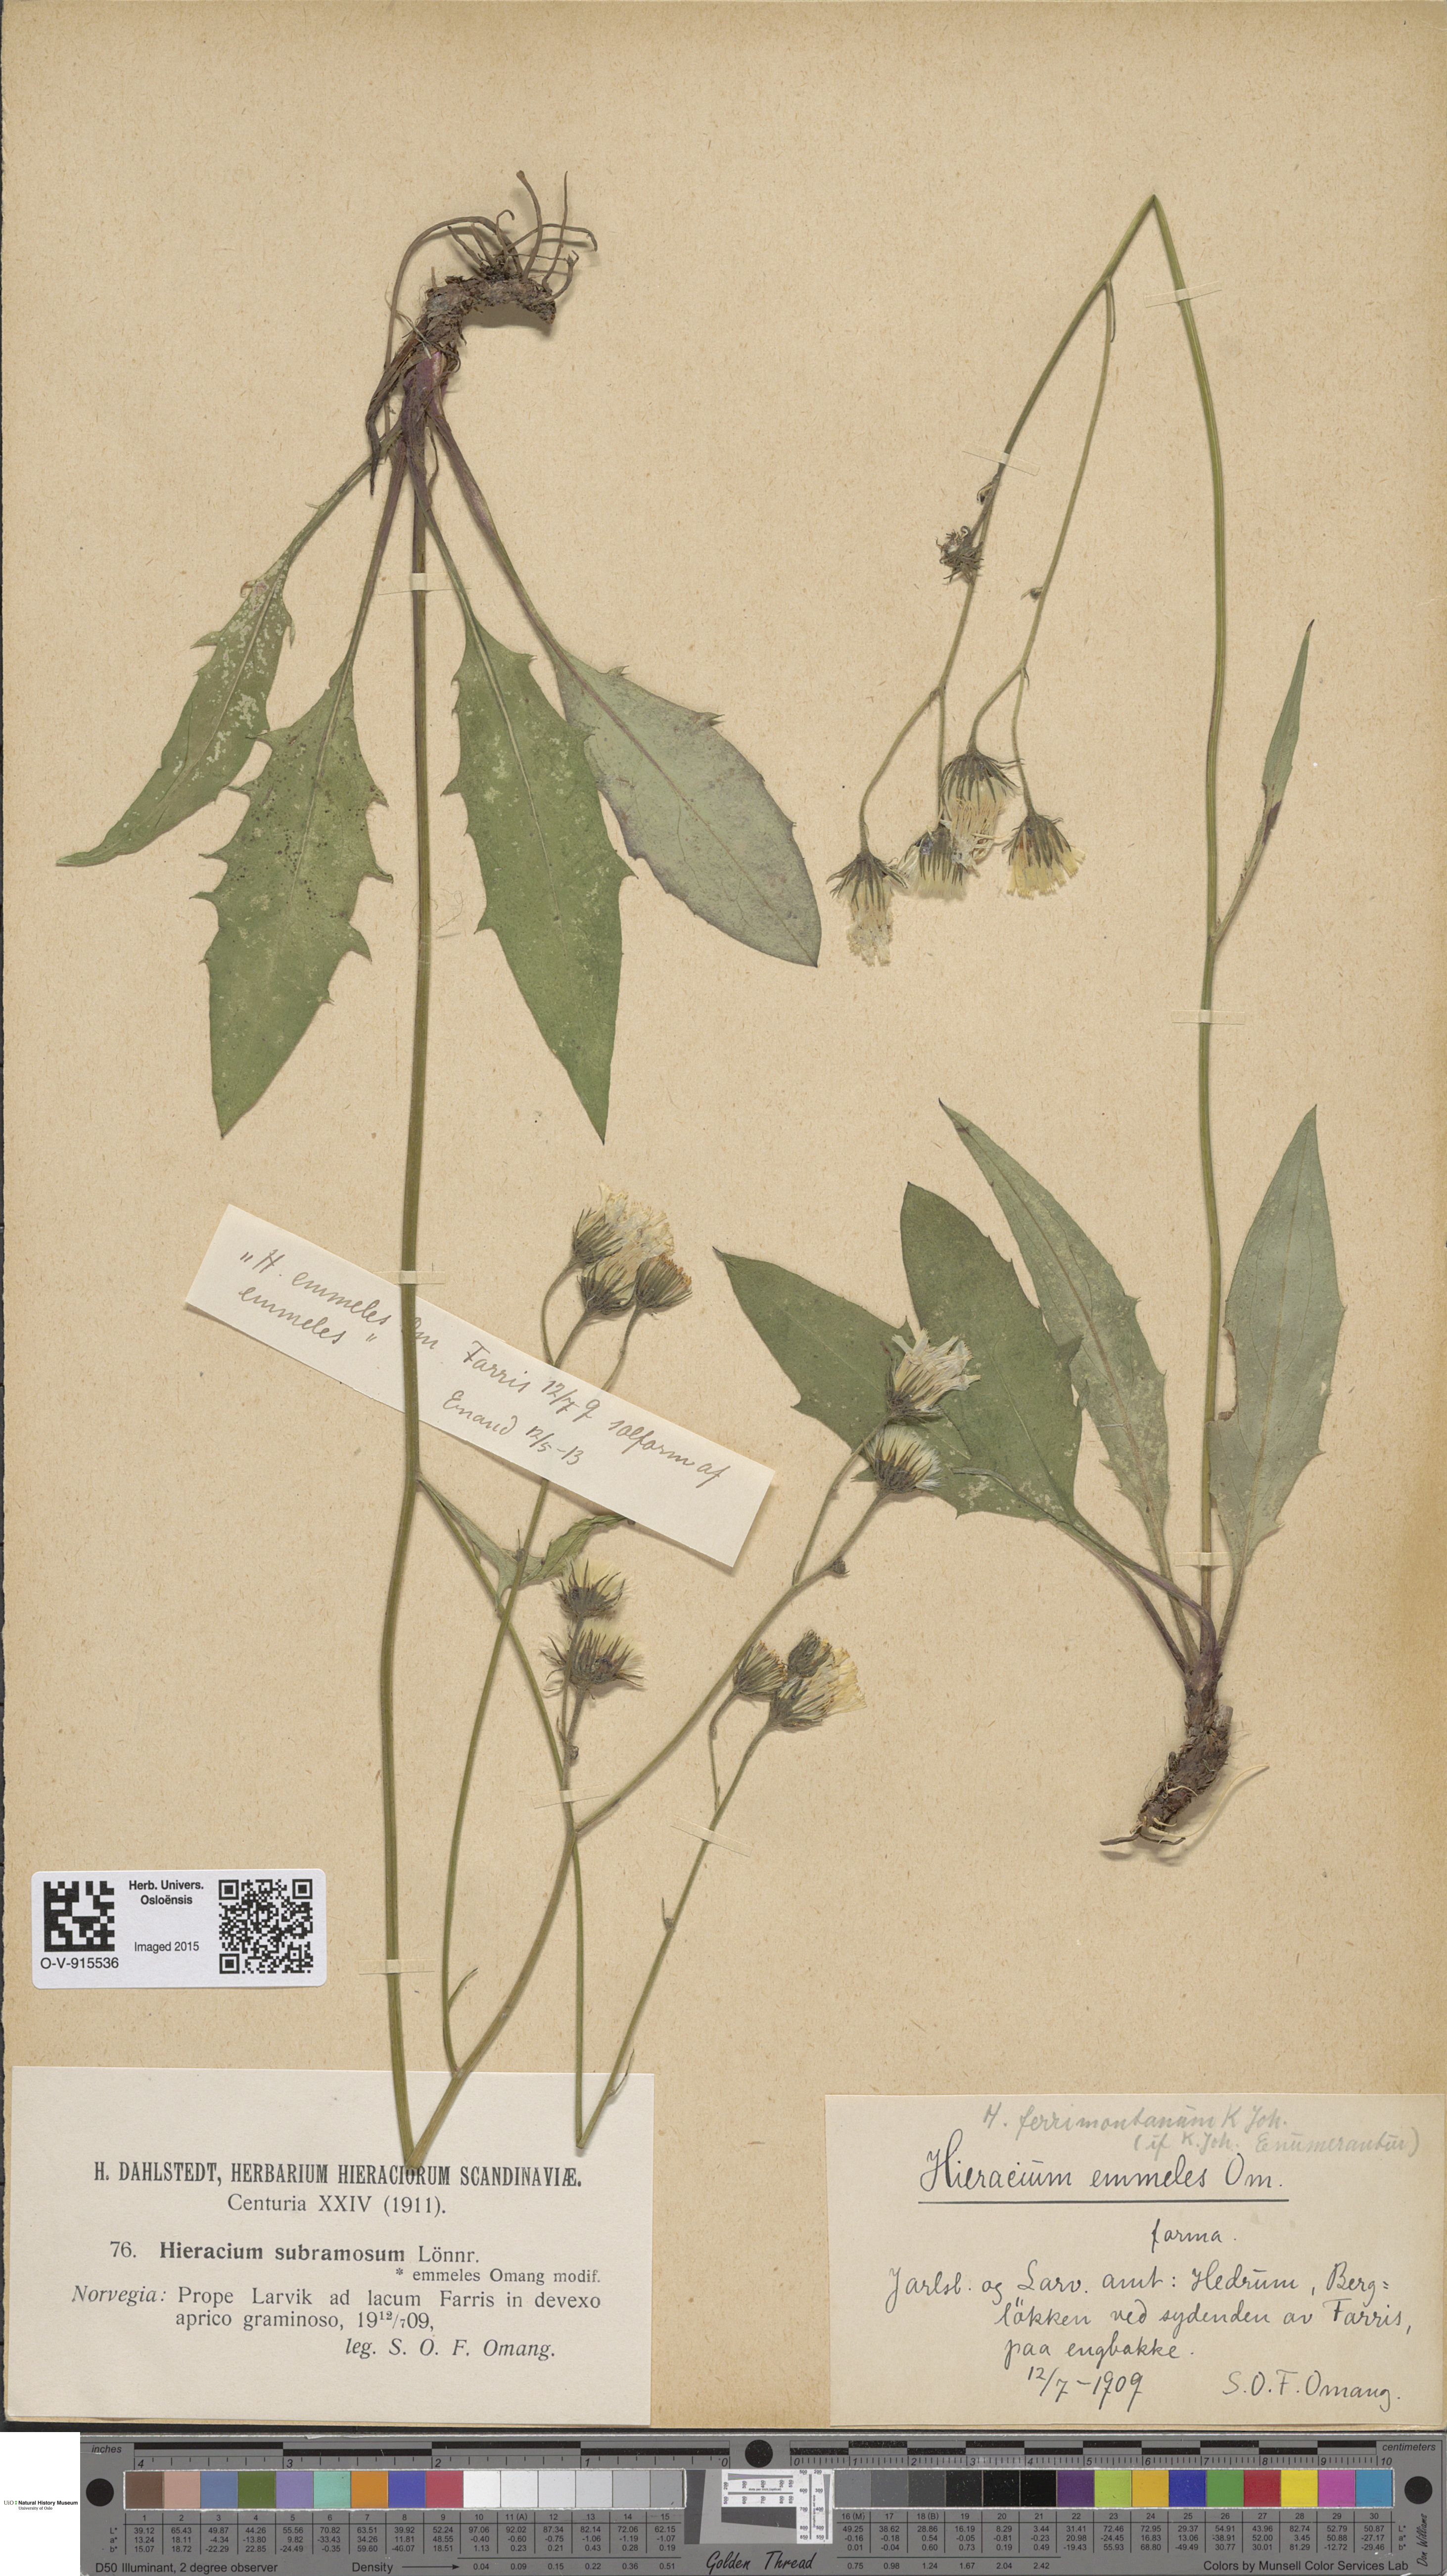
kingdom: Plantae
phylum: Tracheophyta
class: Magnoliopsida
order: Asterales
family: Asteraceae
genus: Hieracium
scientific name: Hieracium
